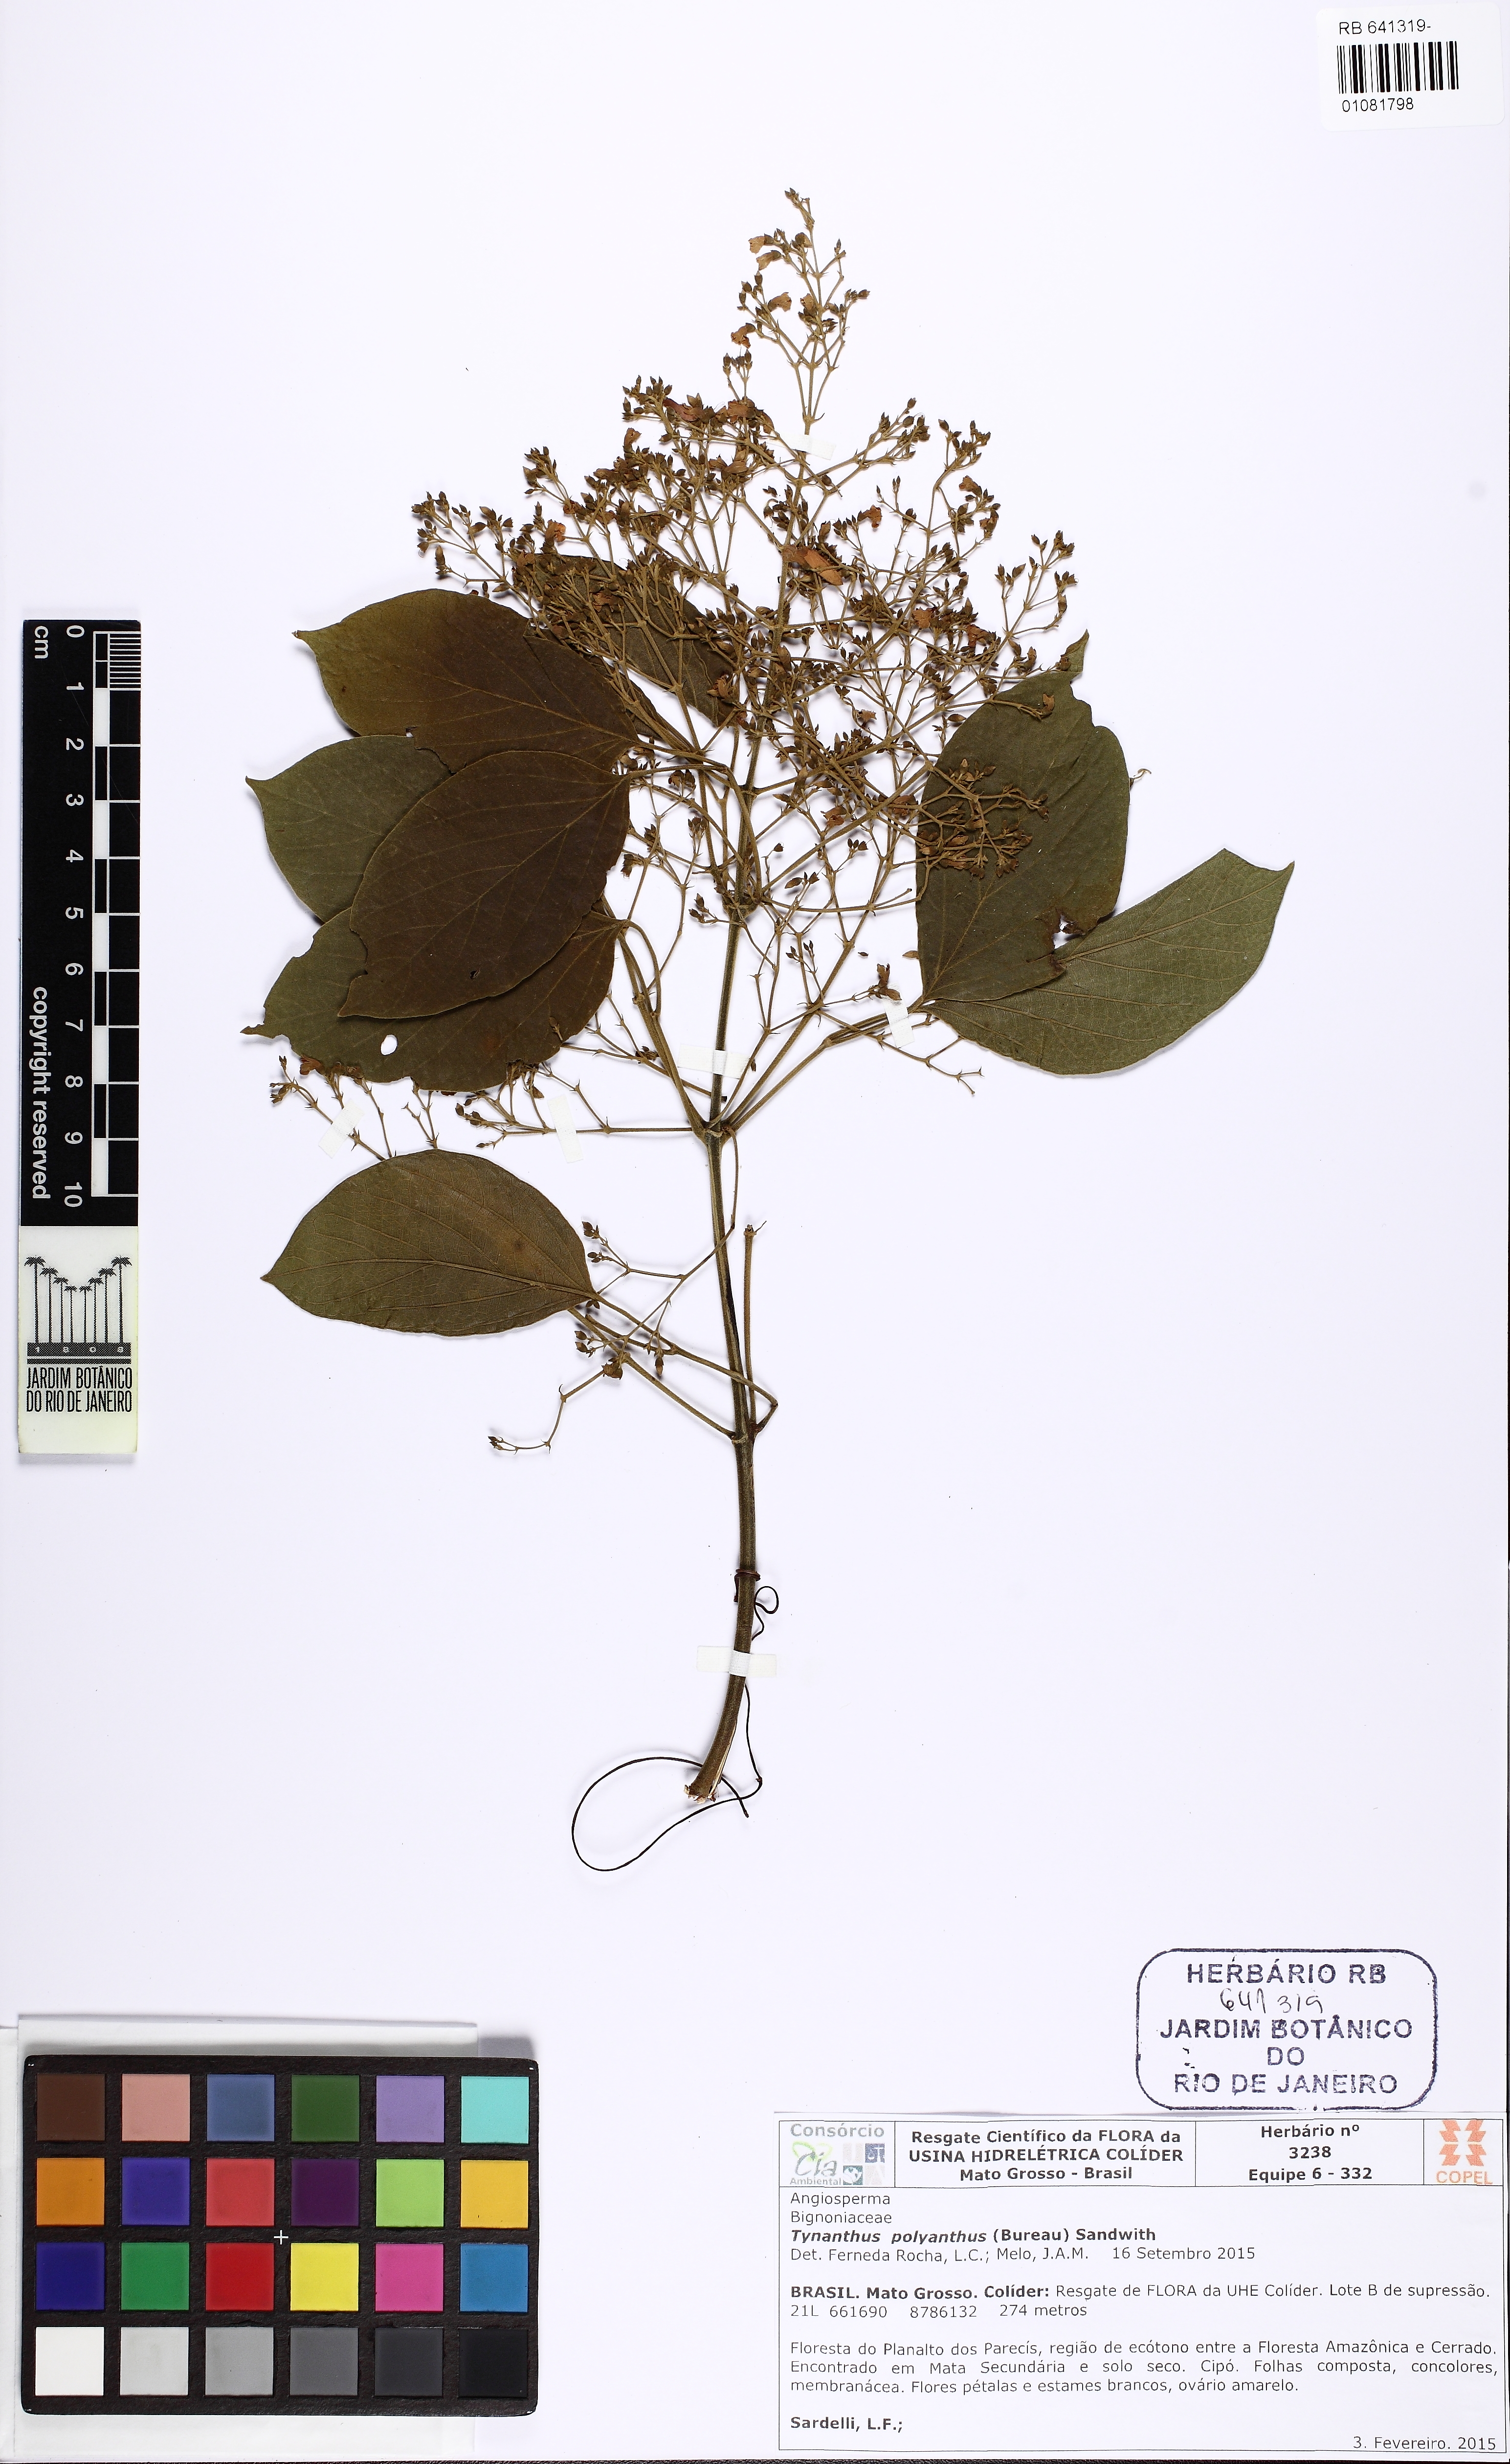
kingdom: Plantae
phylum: Tracheophyta
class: Magnoliopsida
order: Lamiales
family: Bignoniaceae
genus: Tynanthus
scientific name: Tynanthus polyanthus
